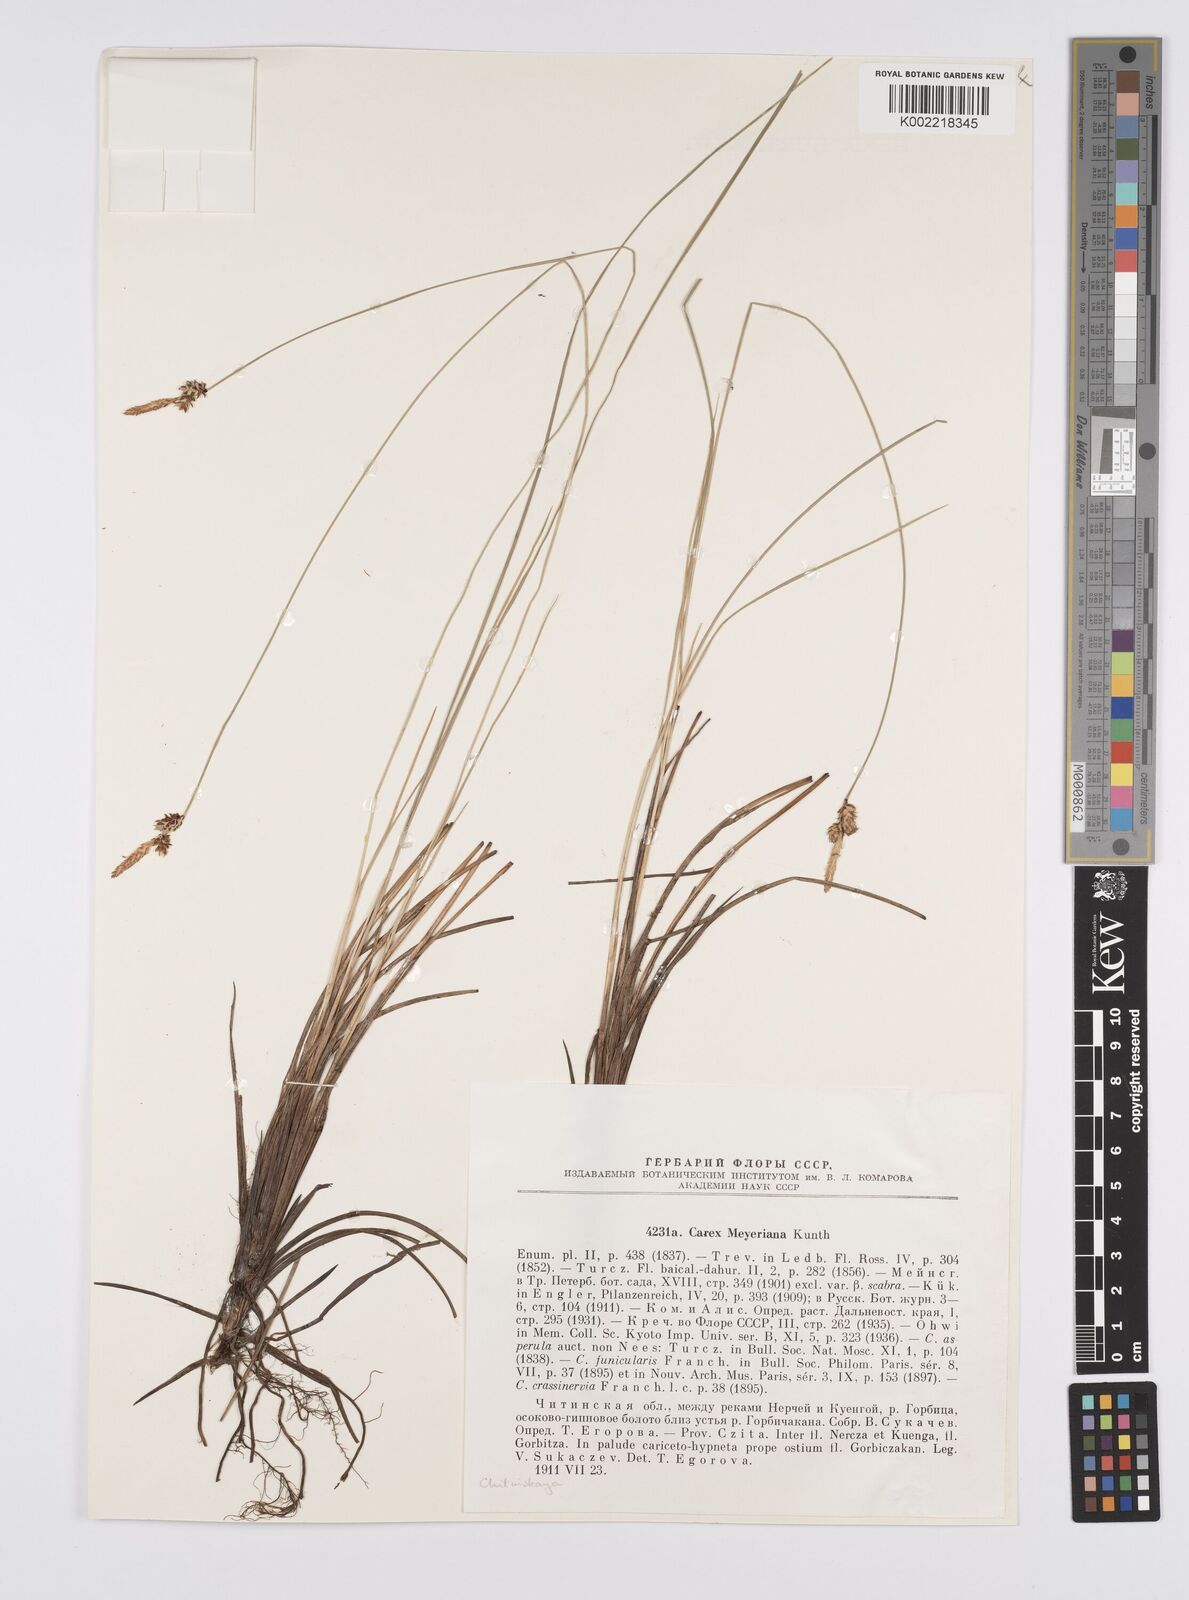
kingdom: Plantae
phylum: Tracheophyta
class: Liliopsida
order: Poales
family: Cyperaceae
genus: Carex
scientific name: Carex meyeriana
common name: Wula sedge
